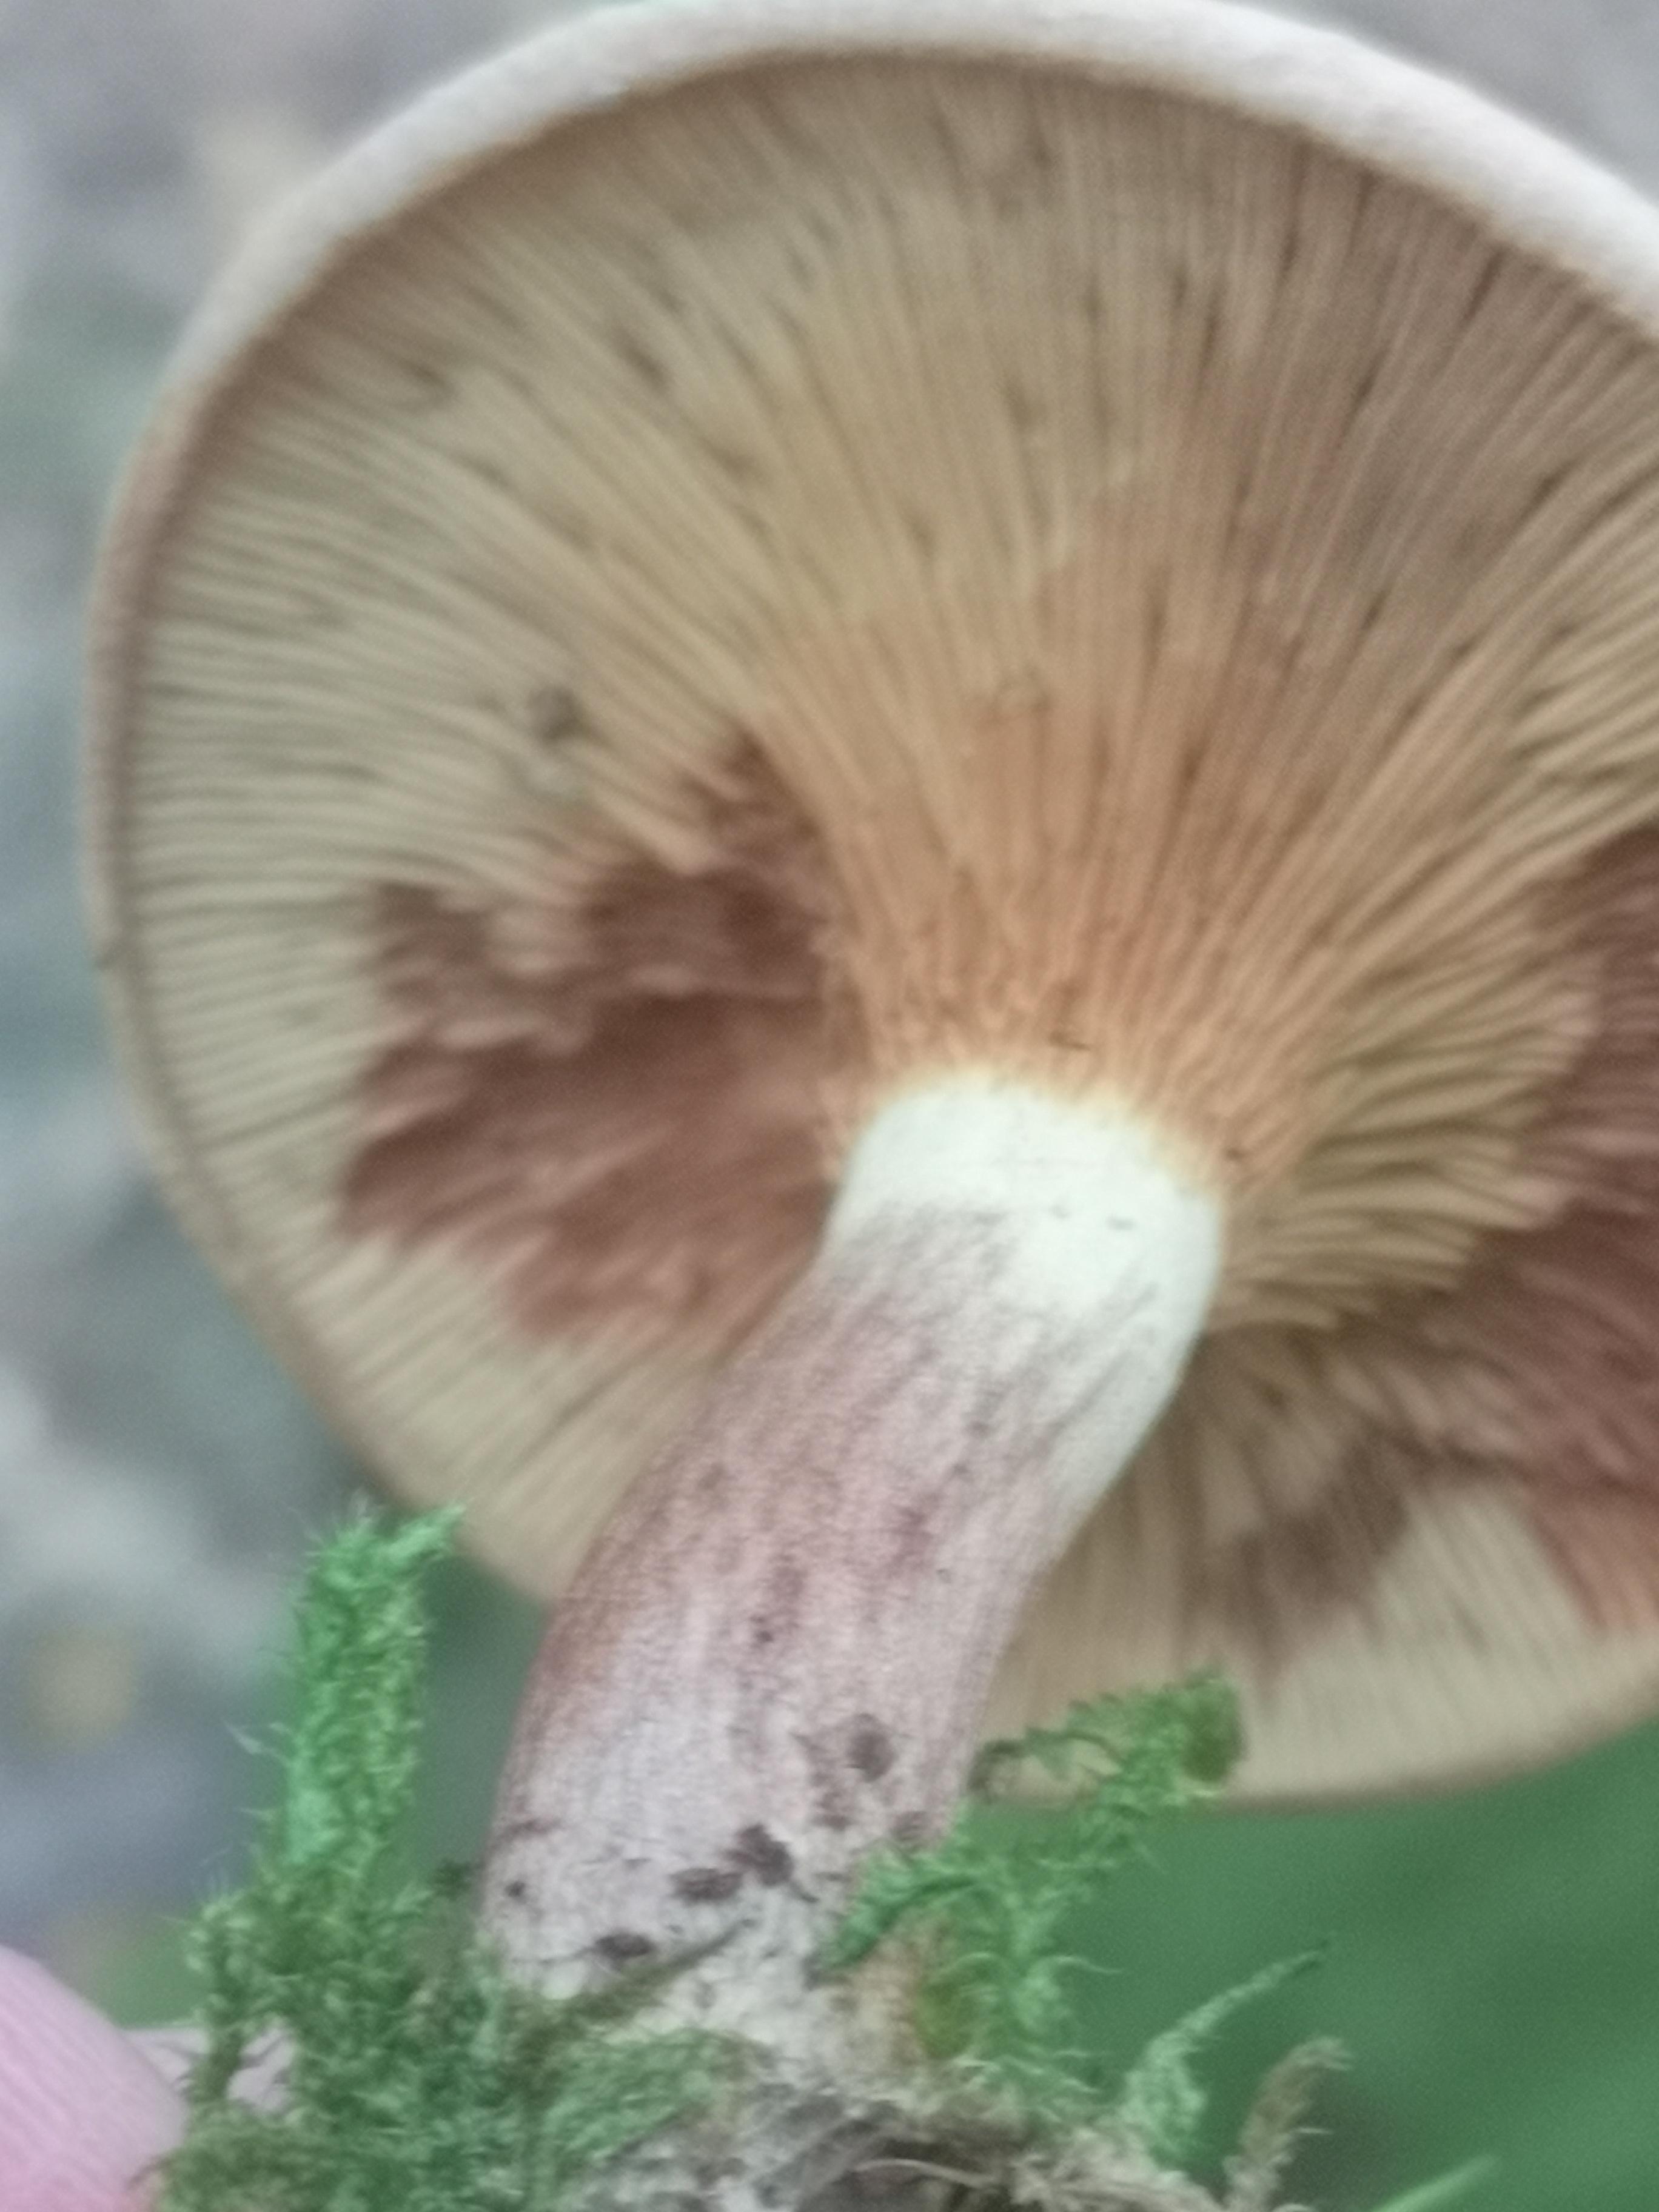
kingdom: Fungi
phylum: Basidiomycota
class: Agaricomycetes
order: Boletales
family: Paxillaceae
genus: Paxillus
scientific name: Paxillus involutus
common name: almindelig netbladhat
